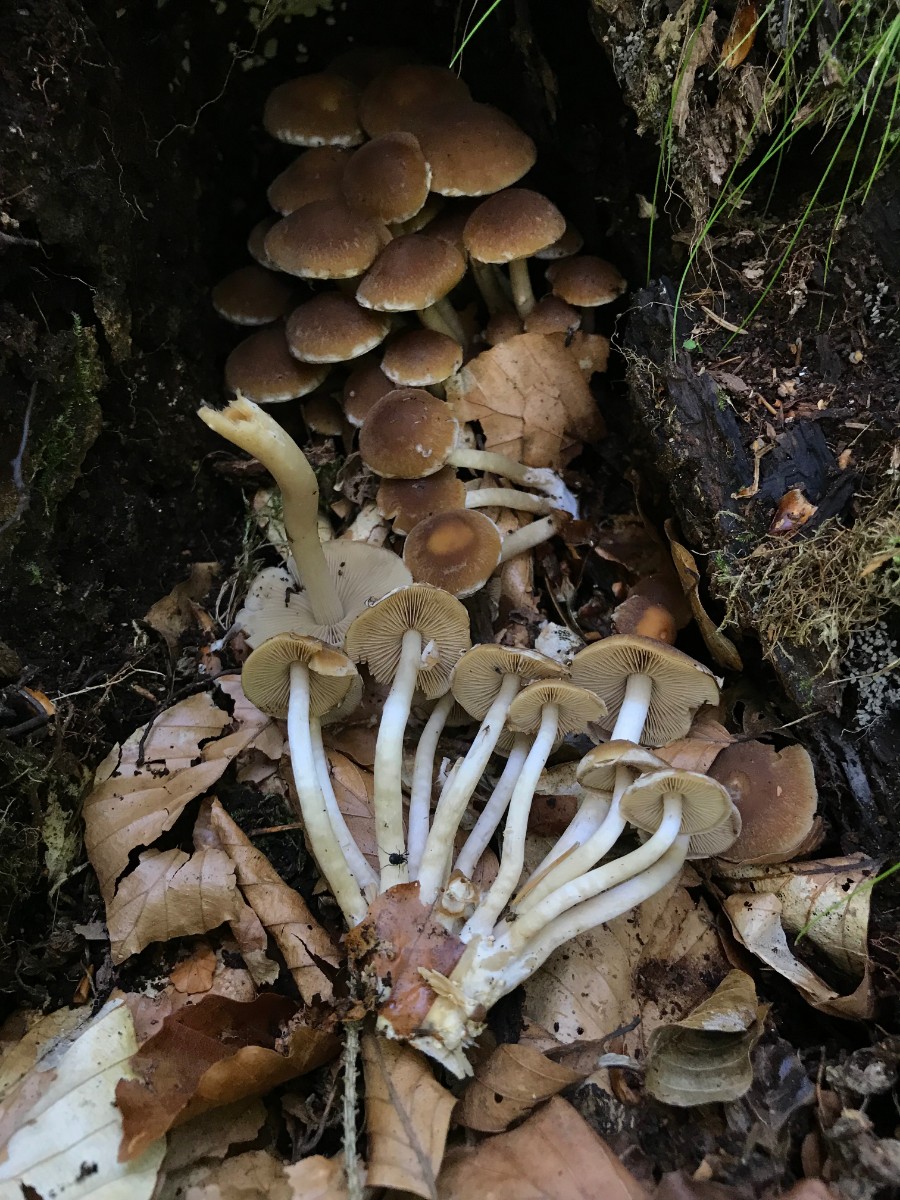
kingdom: Fungi
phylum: Basidiomycota
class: Agaricomycetes
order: Agaricales
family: Psathyrellaceae
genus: Psathyrella
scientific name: Psathyrella
